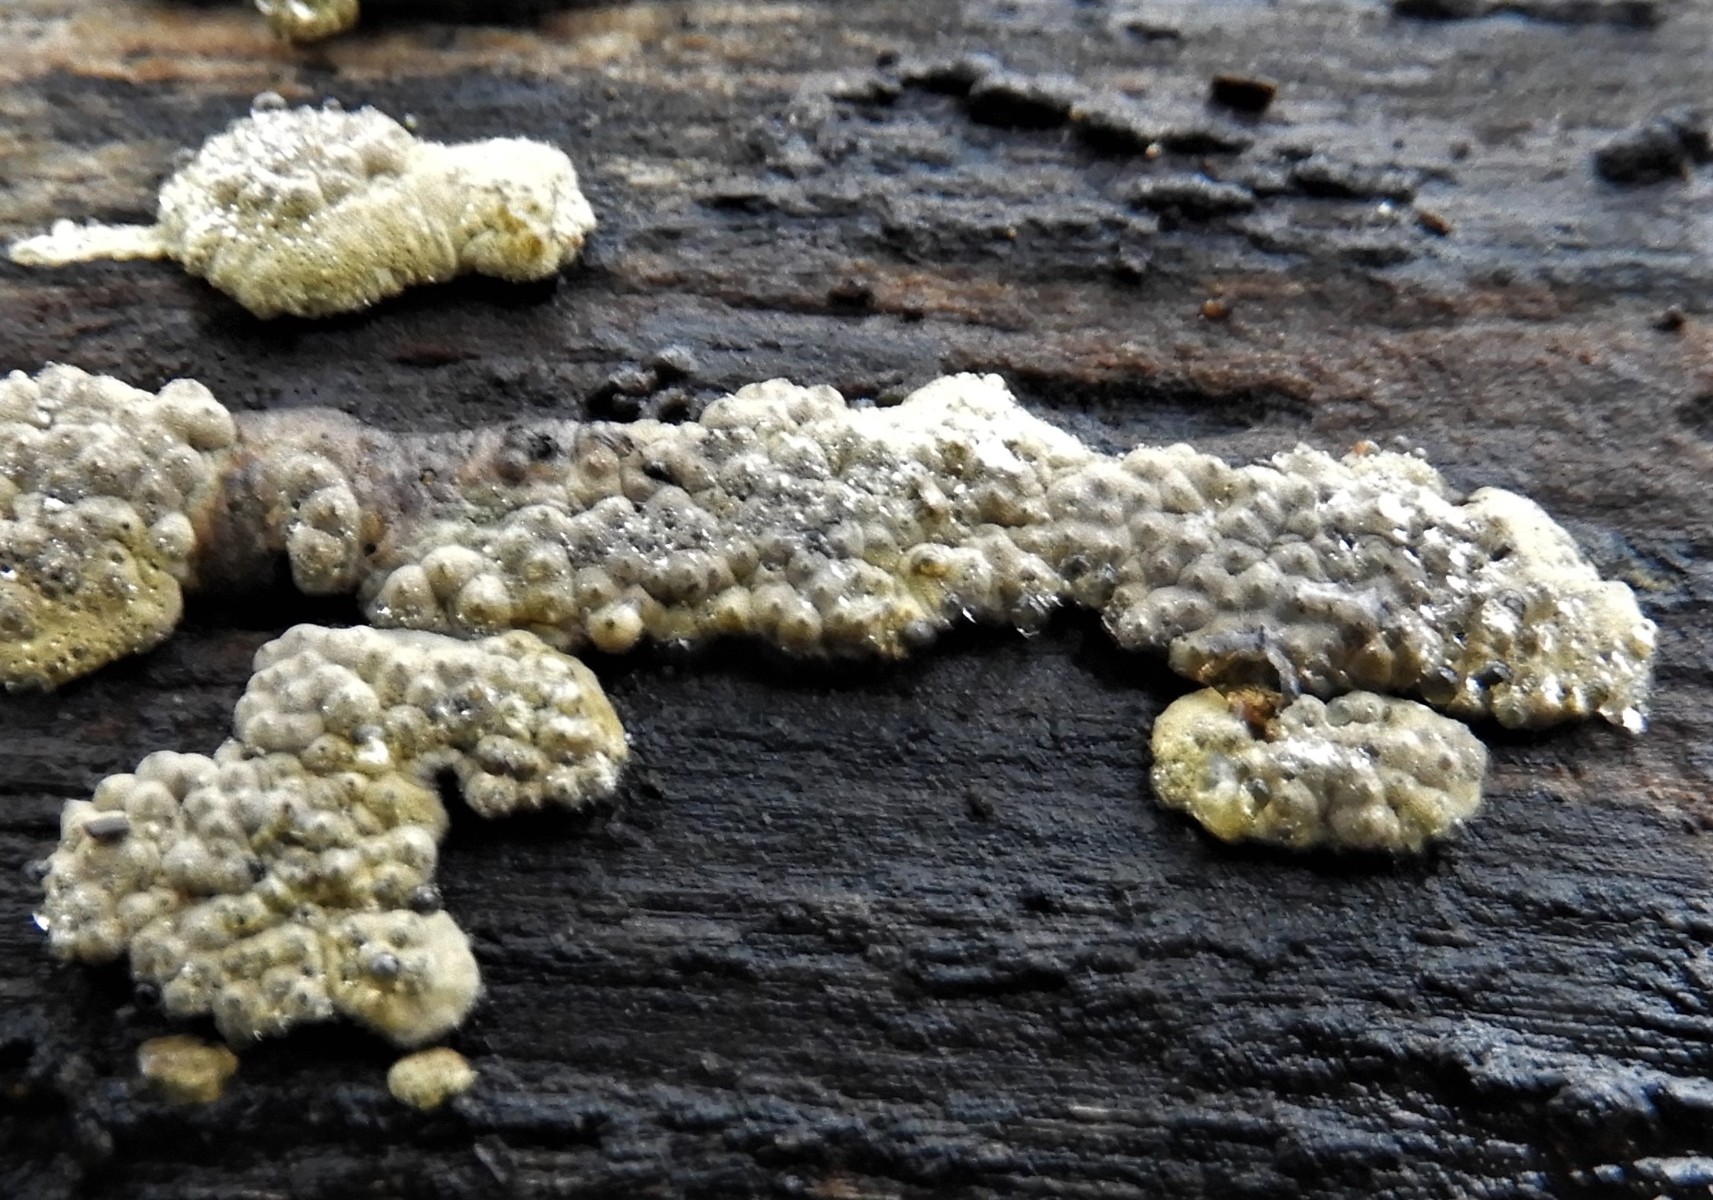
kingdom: Fungi
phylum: Ascomycota
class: Sordariomycetes
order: Xylariales
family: Hypoxylaceae
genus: Jackrogersella
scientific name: Jackrogersella cohaerens
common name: sammenflydende kulbær
